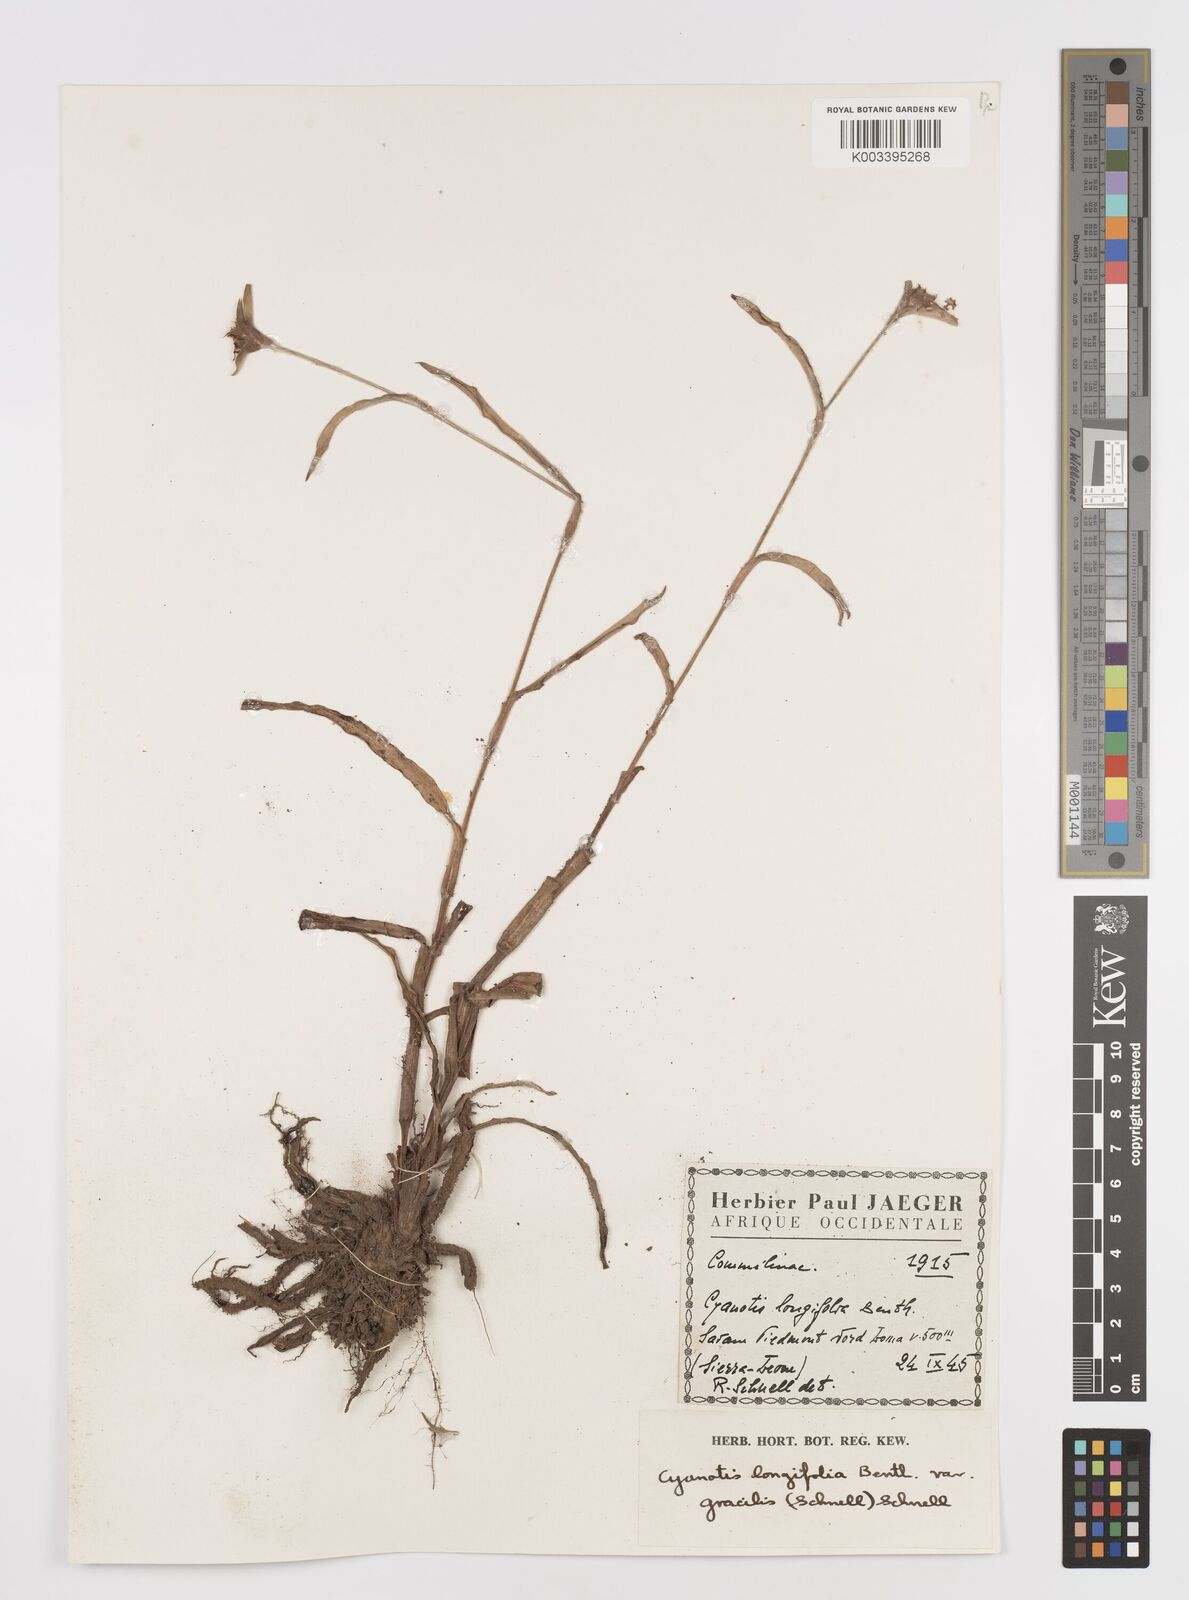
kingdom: Plantae
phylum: Tracheophyta
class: Liliopsida
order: Commelinales
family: Commelinaceae
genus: Cyanotis
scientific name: Cyanotis longifolia
